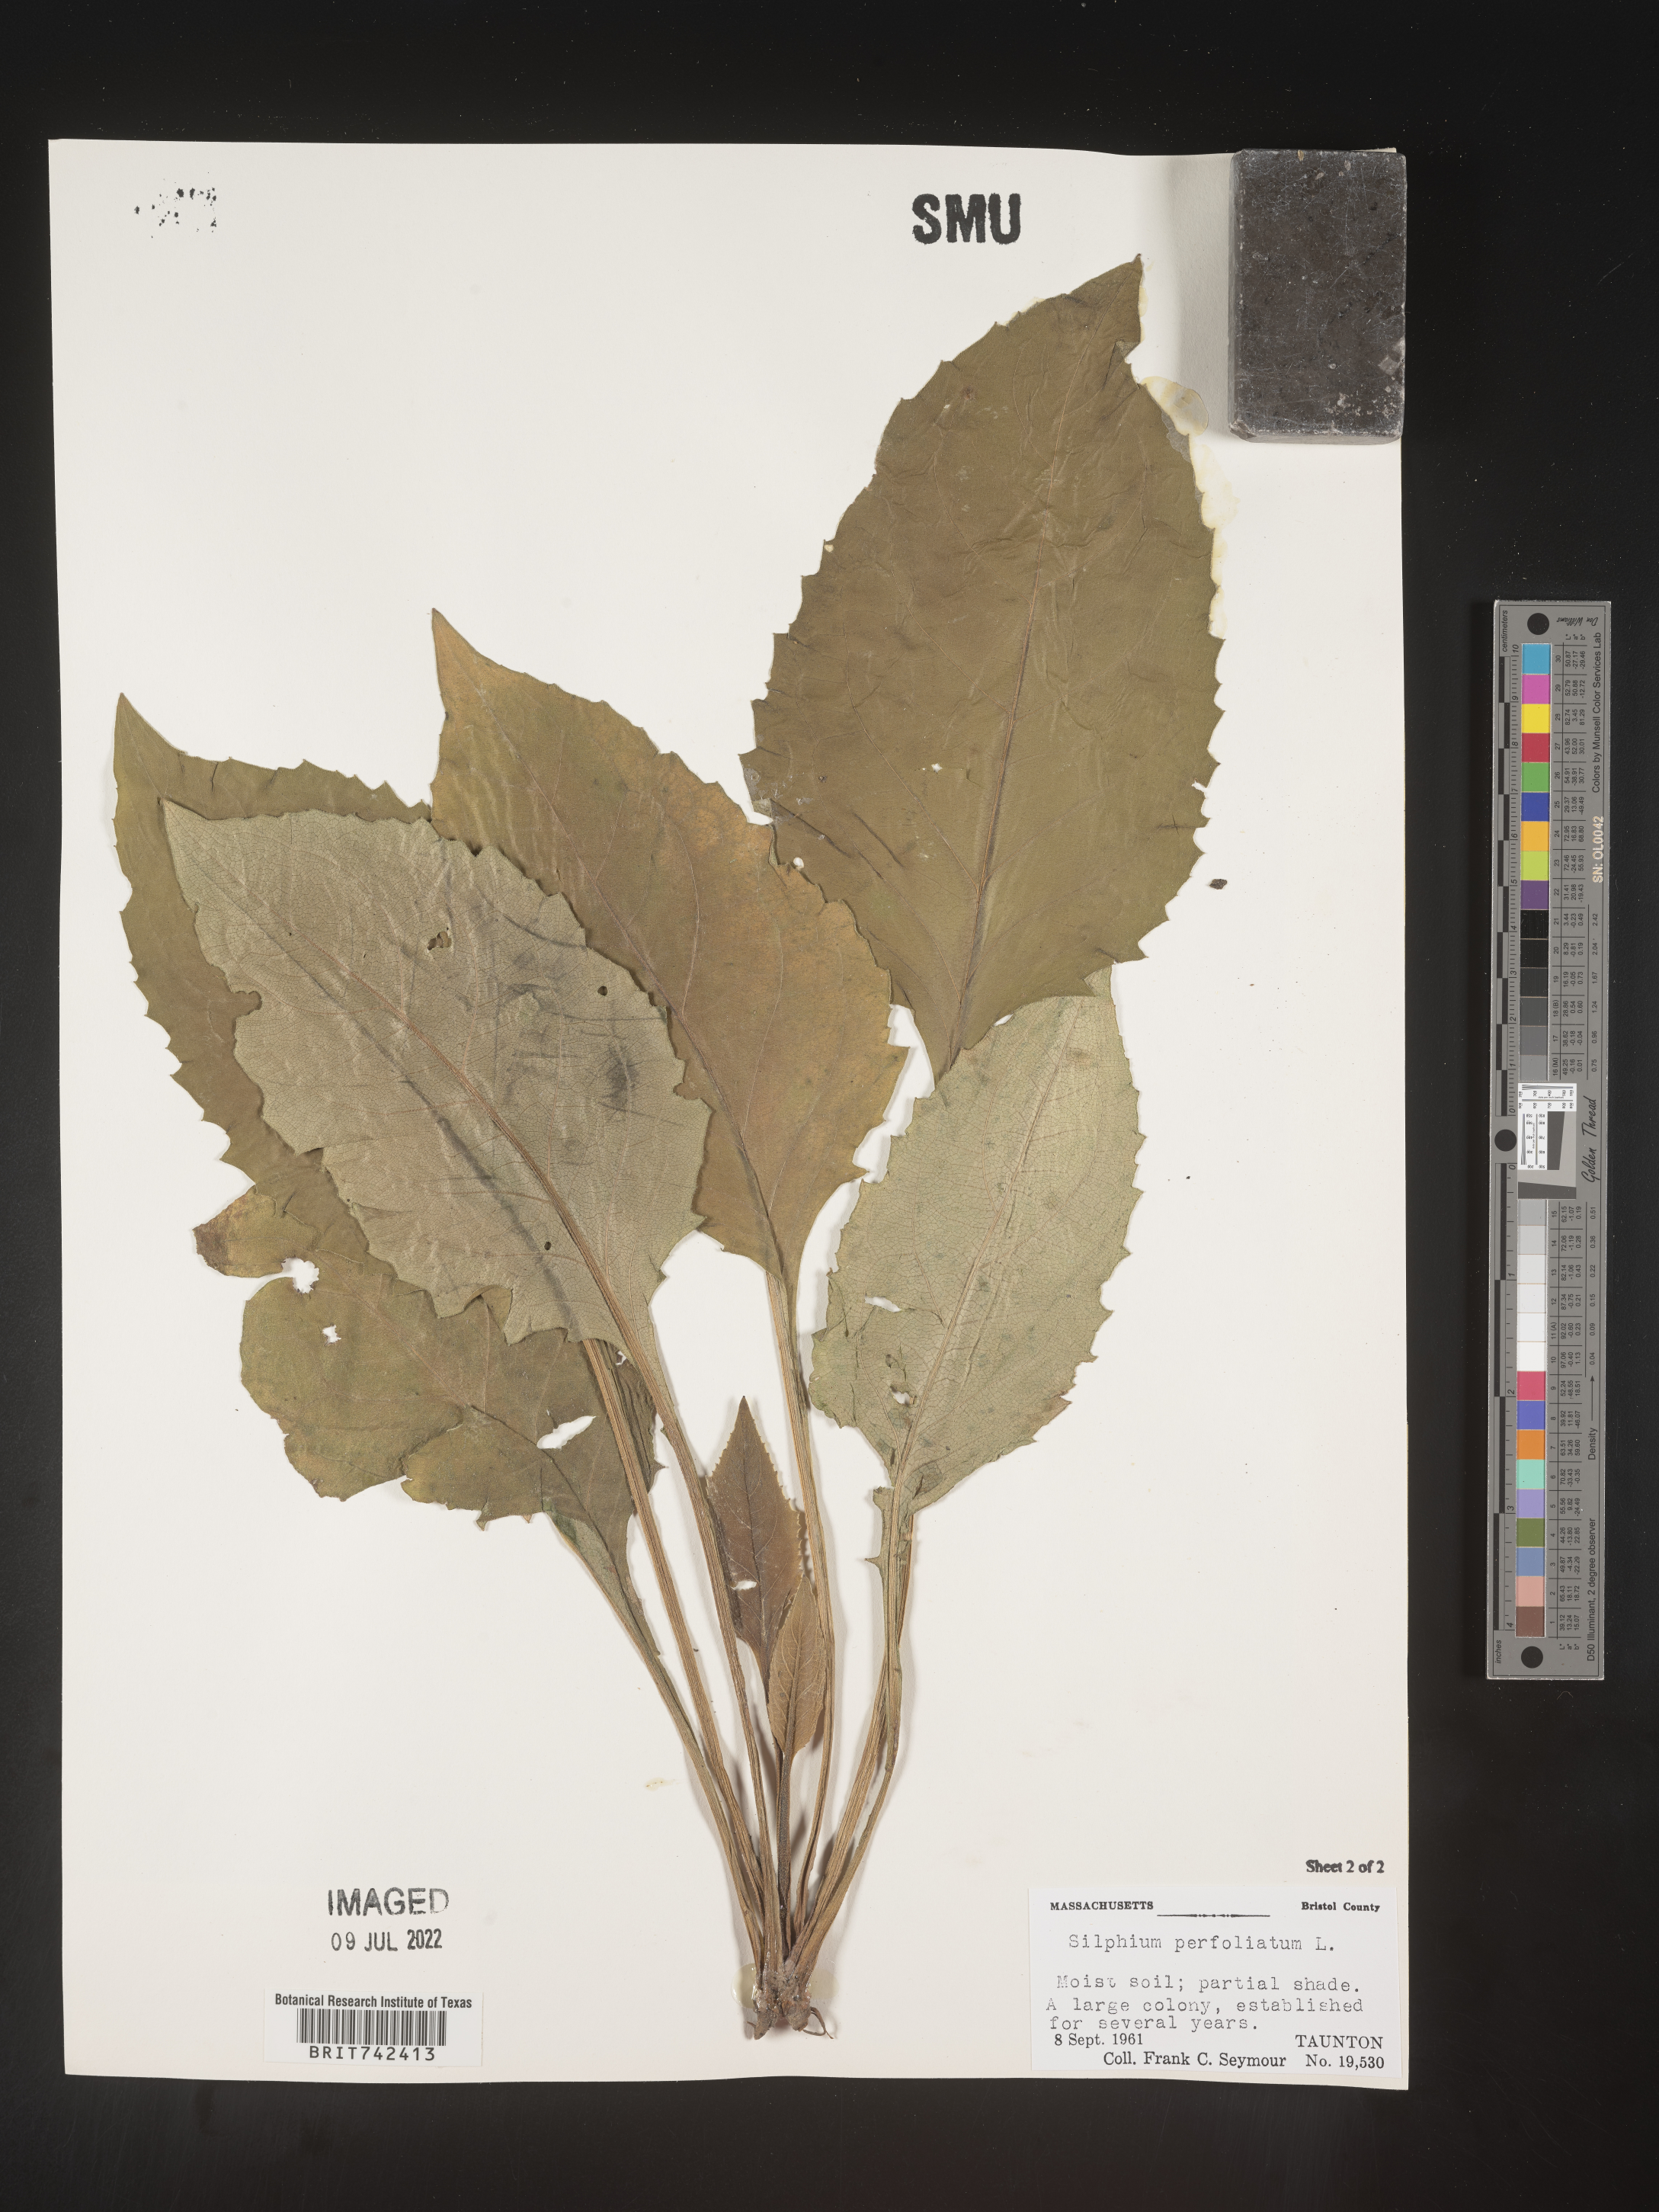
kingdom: Plantae
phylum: Tracheophyta
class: Magnoliopsida
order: Asterales
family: Asteraceae
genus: Silphium
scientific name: Silphium perfoliatum
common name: Cup-plant
